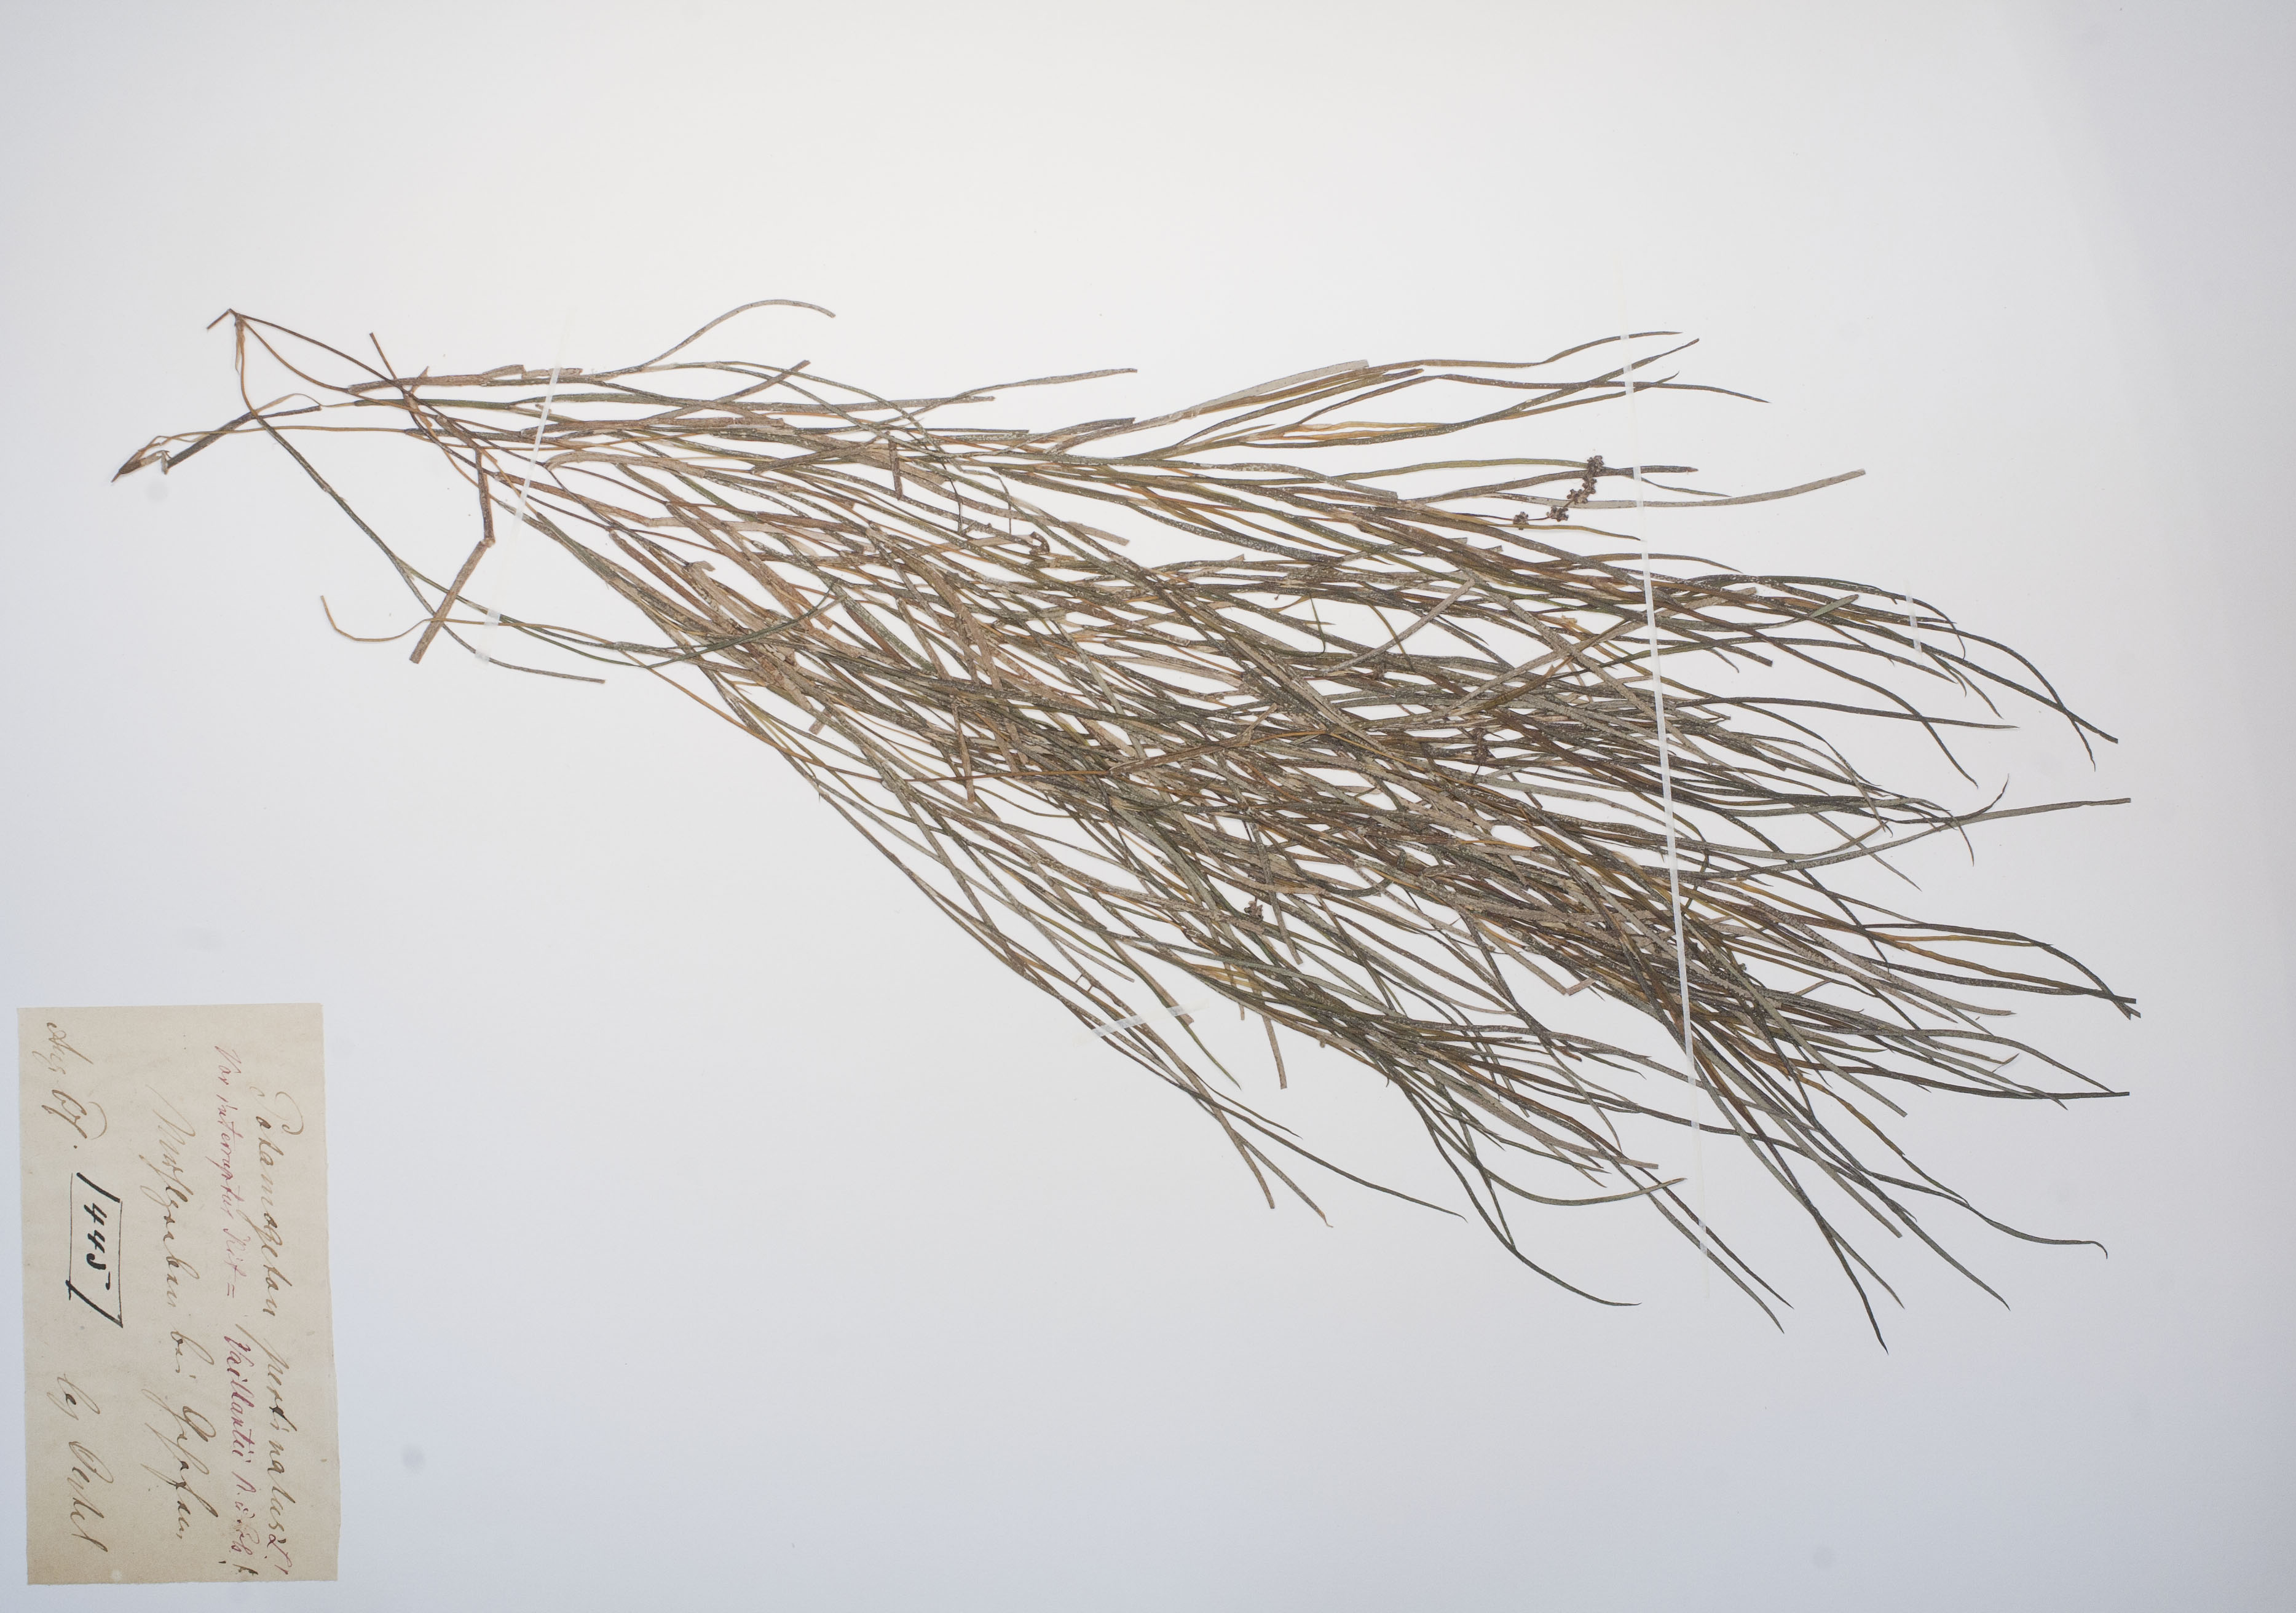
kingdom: Plantae
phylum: Tracheophyta
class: Liliopsida
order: Alismatales
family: Potamogetonaceae
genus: Stuckenia
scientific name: Stuckenia pectinata
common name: Sago pondweed
